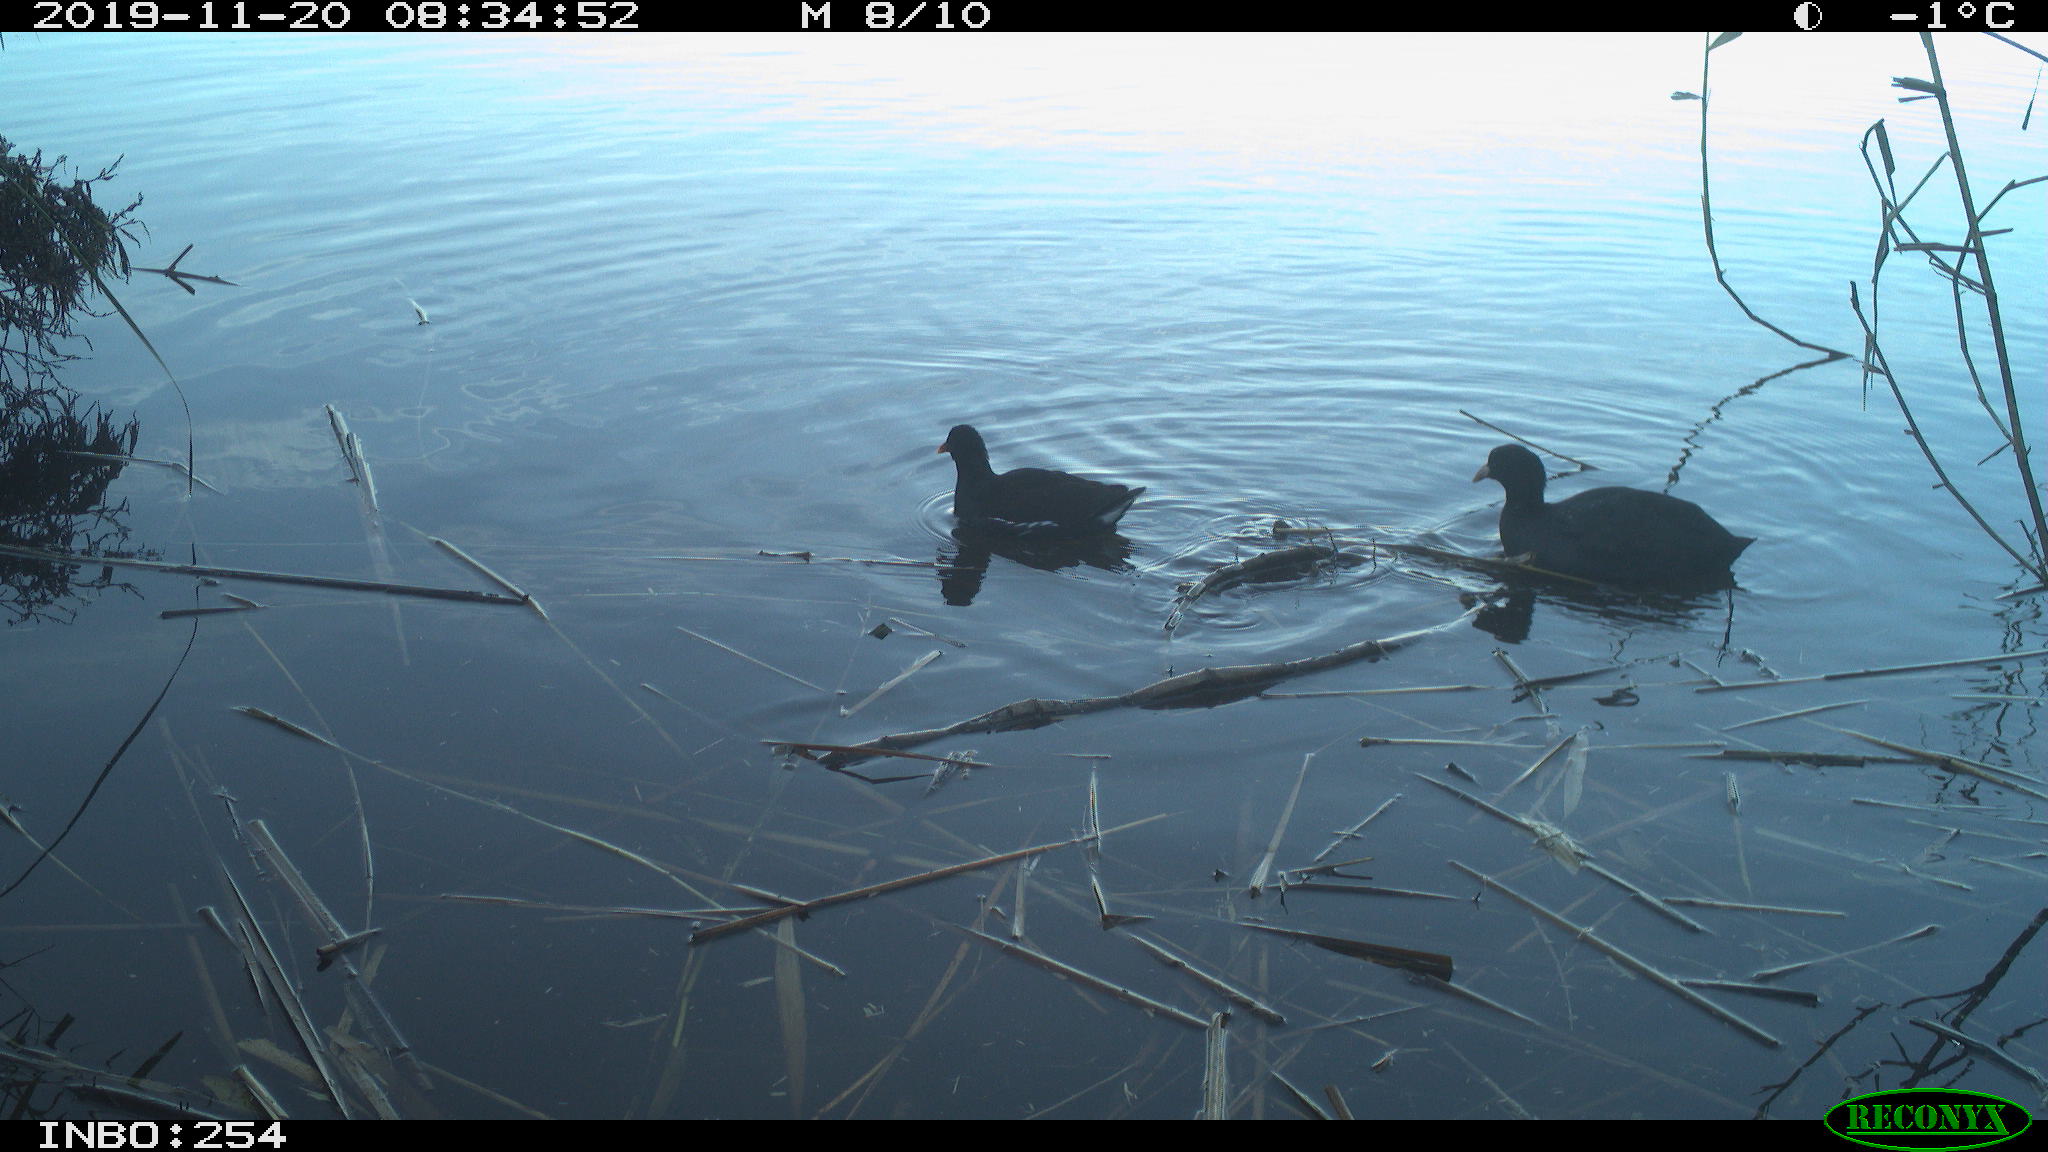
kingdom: Animalia
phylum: Chordata
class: Aves
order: Gruiformes
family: Rallidae
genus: Fulica
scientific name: Fulica atra
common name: Eurasian coot
